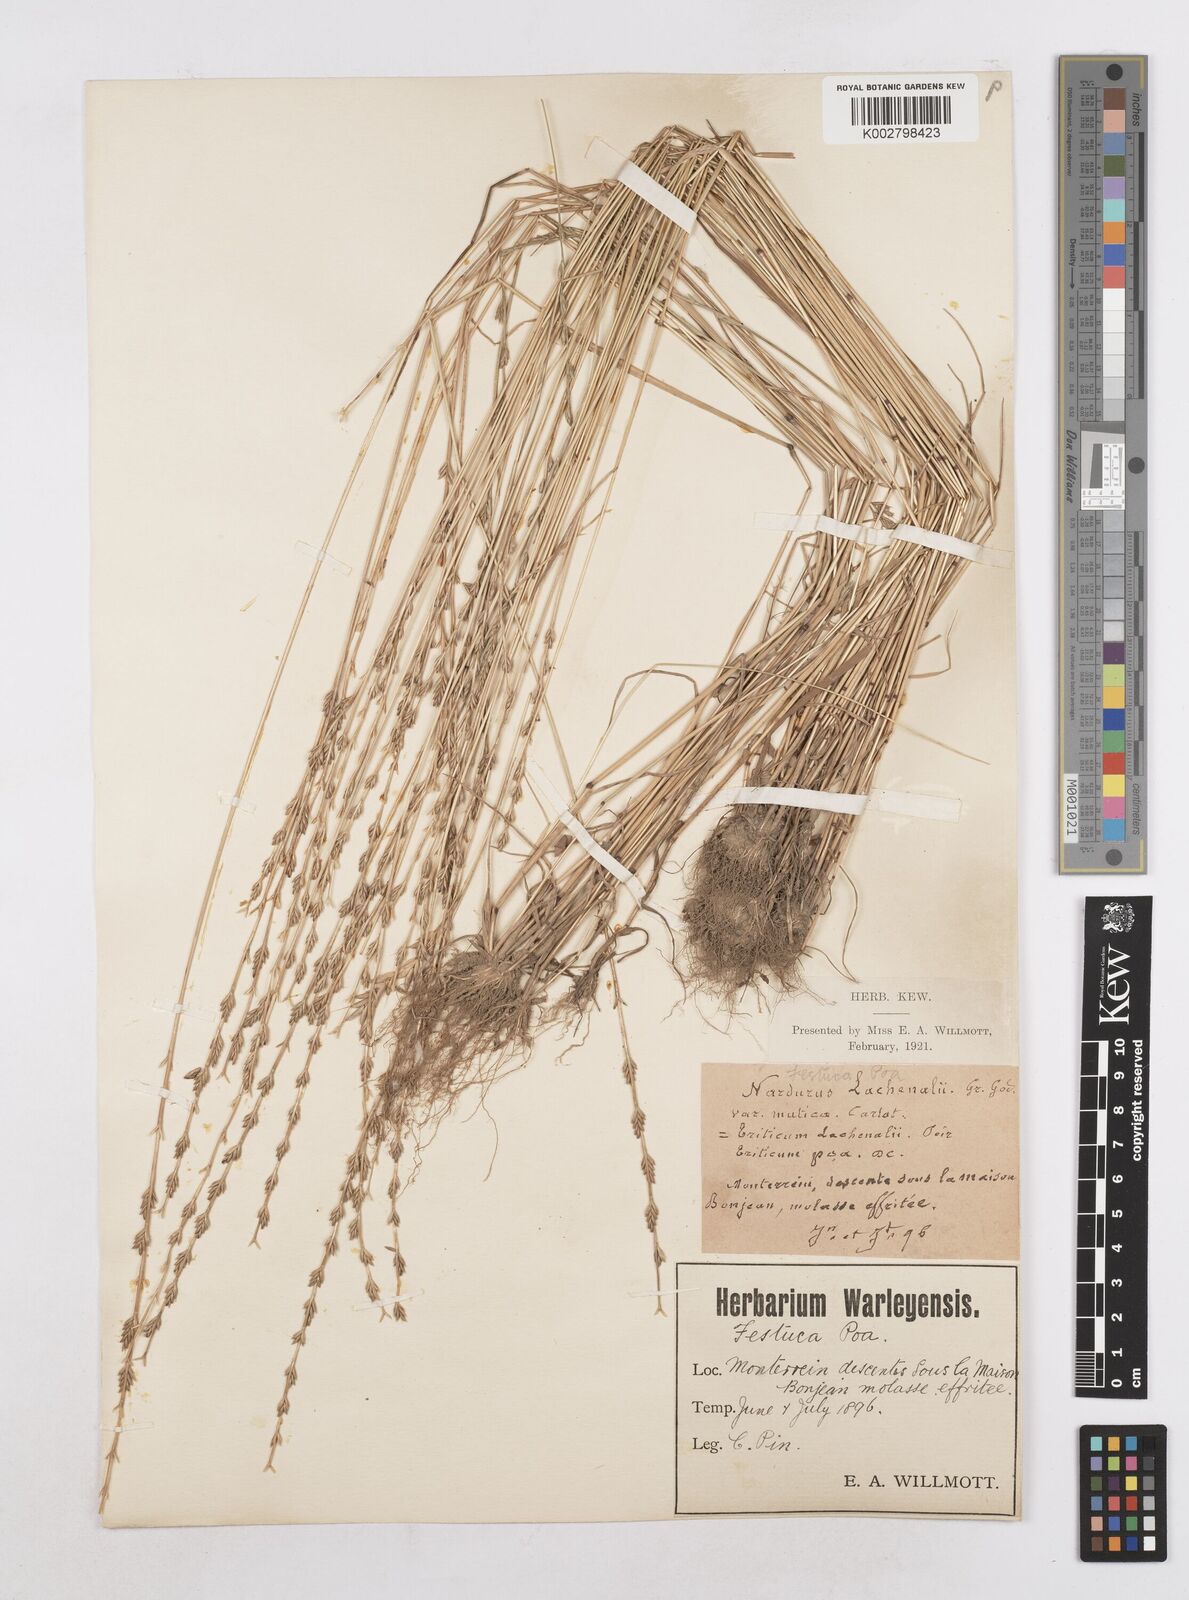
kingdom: Plantae
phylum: Tracheophyta
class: Liliopsida
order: Poales
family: Poaceae
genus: Festuca
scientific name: Festuca lachenalii
